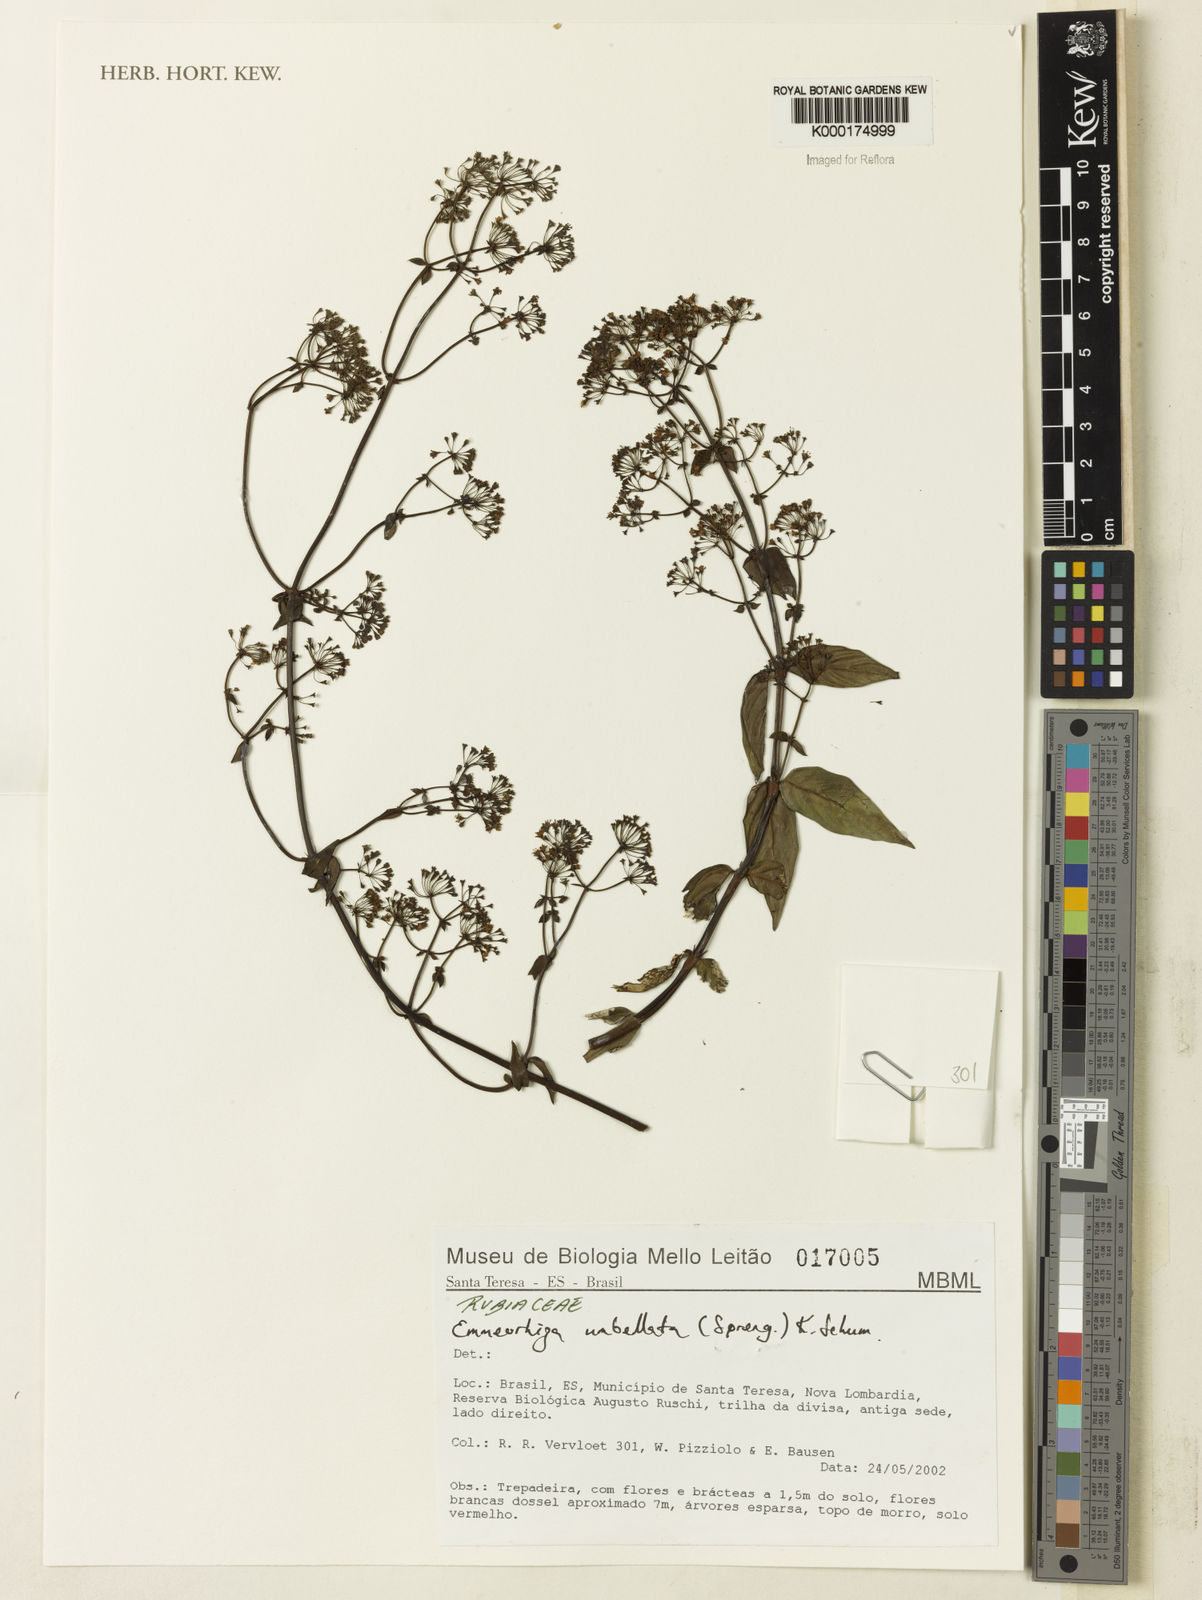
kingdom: Plantae
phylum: Tracheophyta
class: Magnoliopsida
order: Gentianales
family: Rubiaceae
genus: Emmeorhiza
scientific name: Emmeorhiza umbellata
